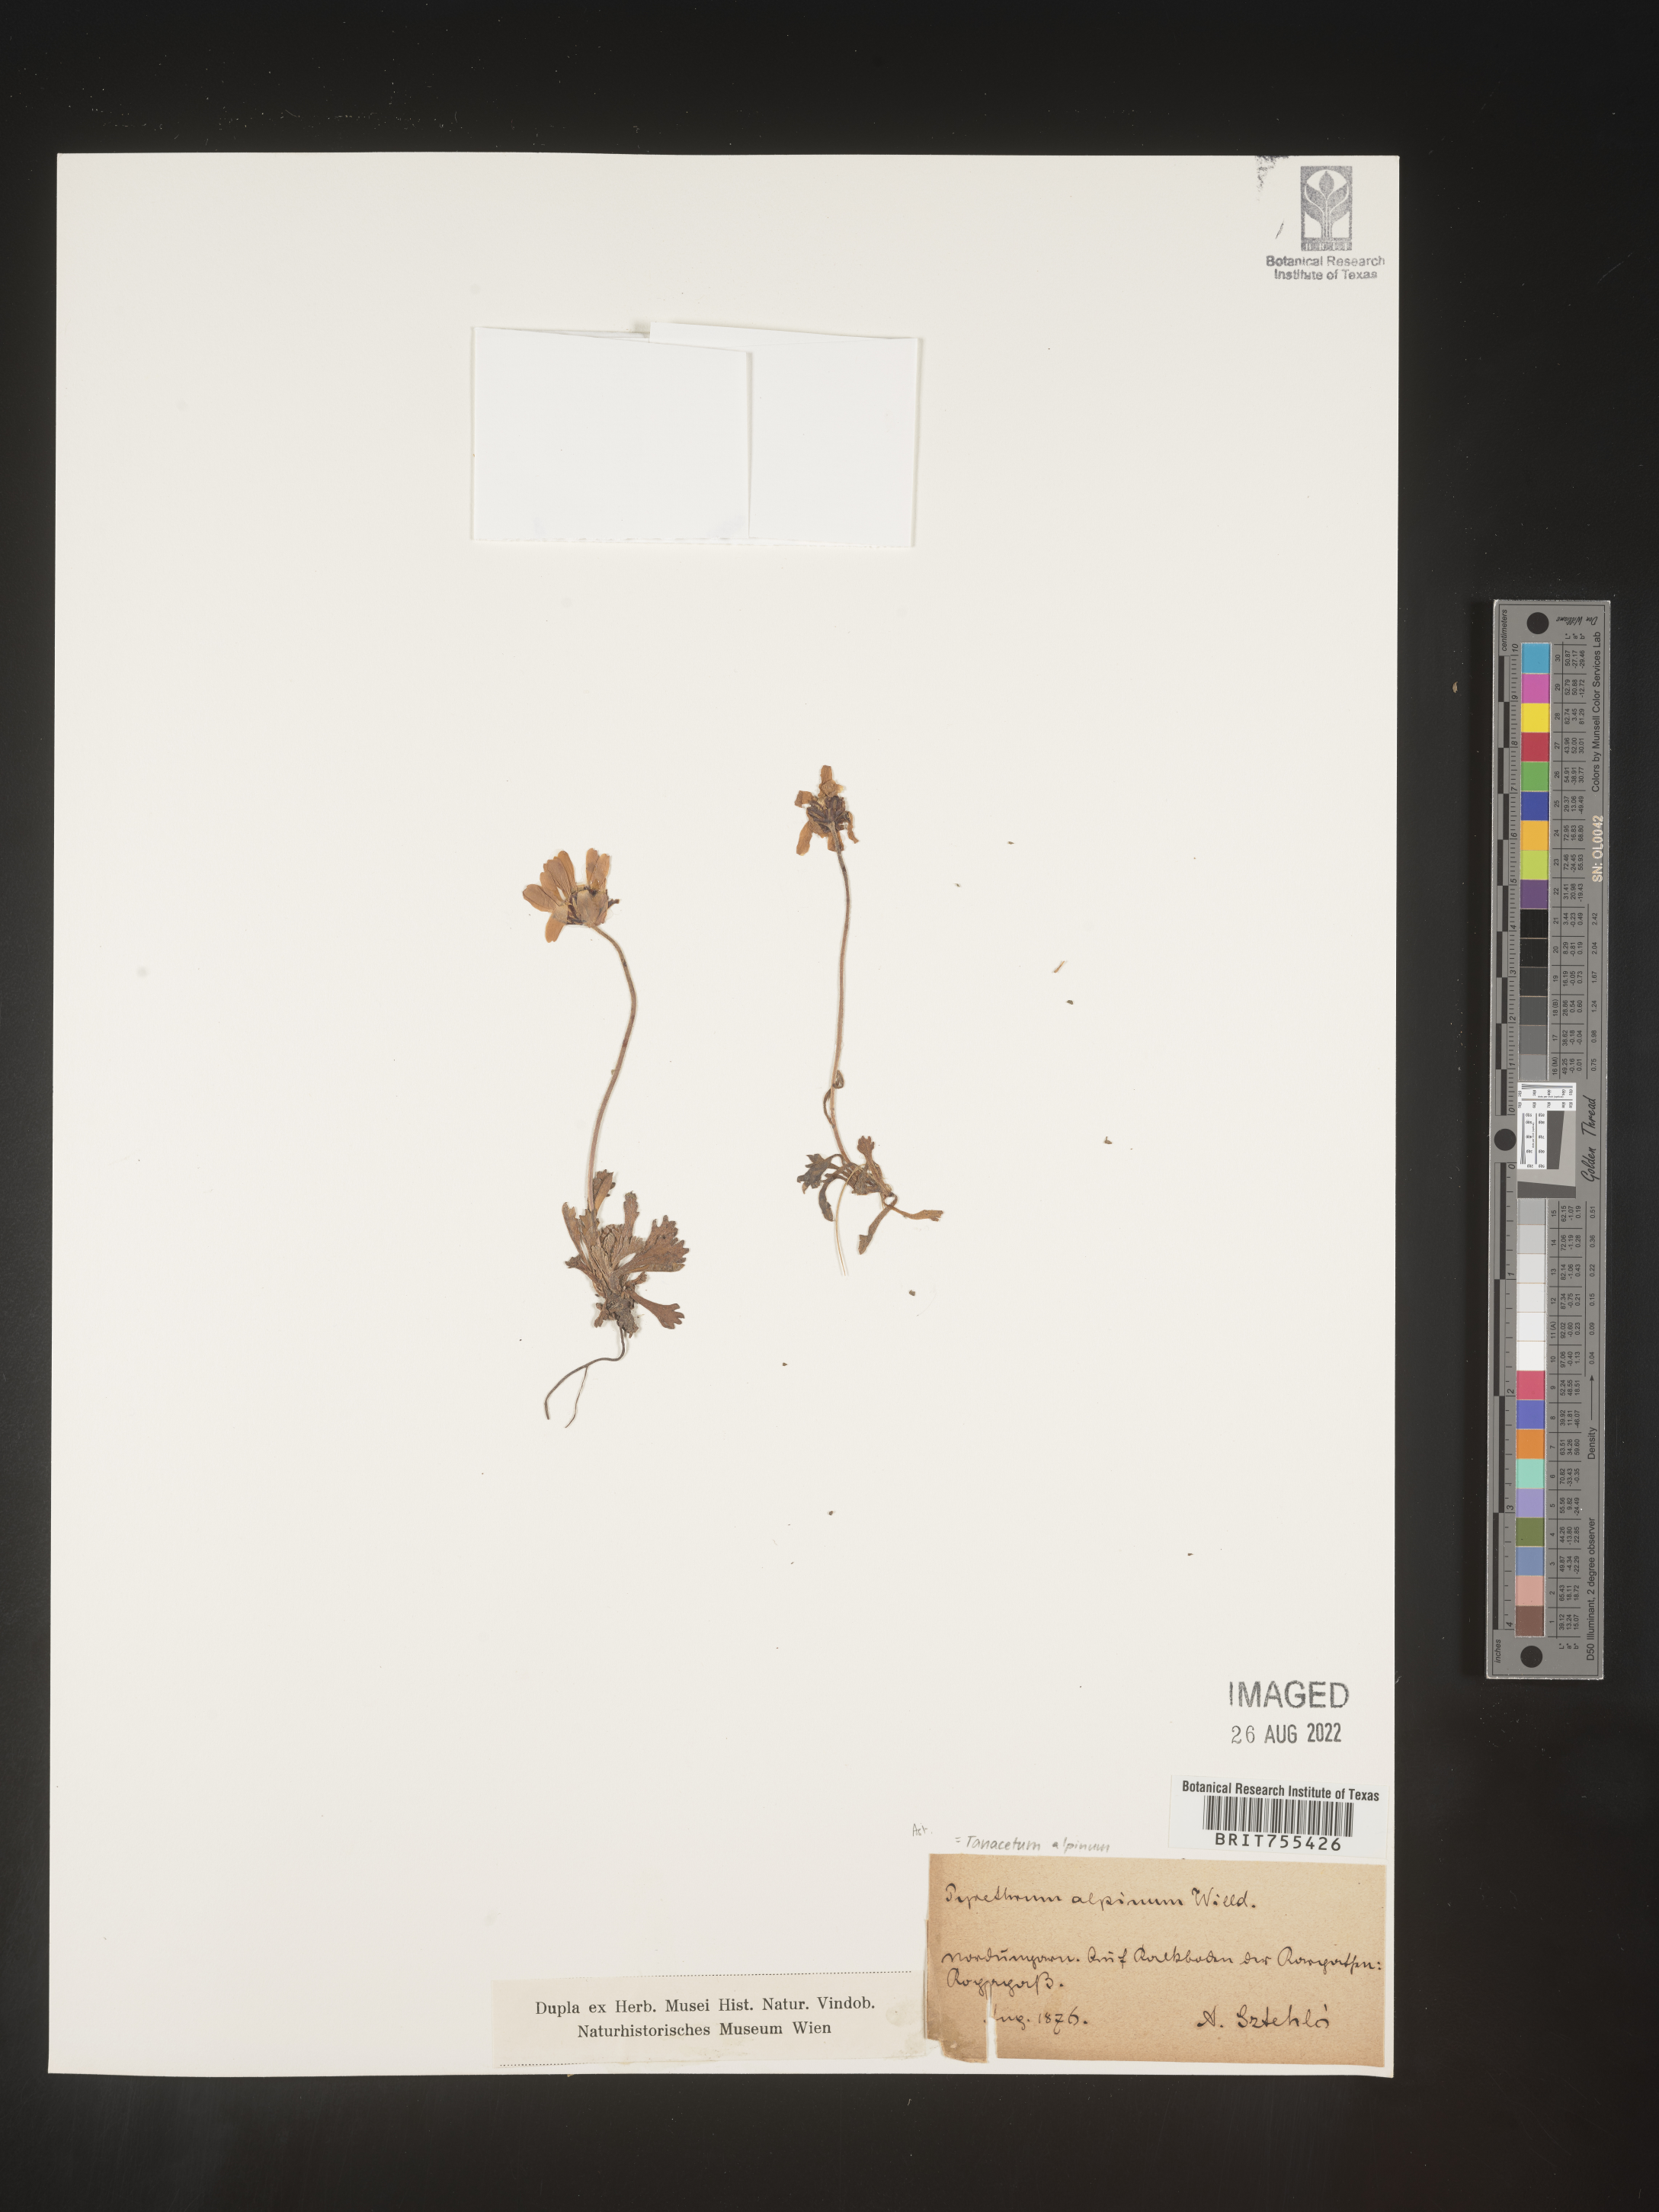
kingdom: Plantae
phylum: Tracheophyta
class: Magnoliopsida
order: Asterales
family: Asteraceae
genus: Tanacetum
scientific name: Tanacetum
